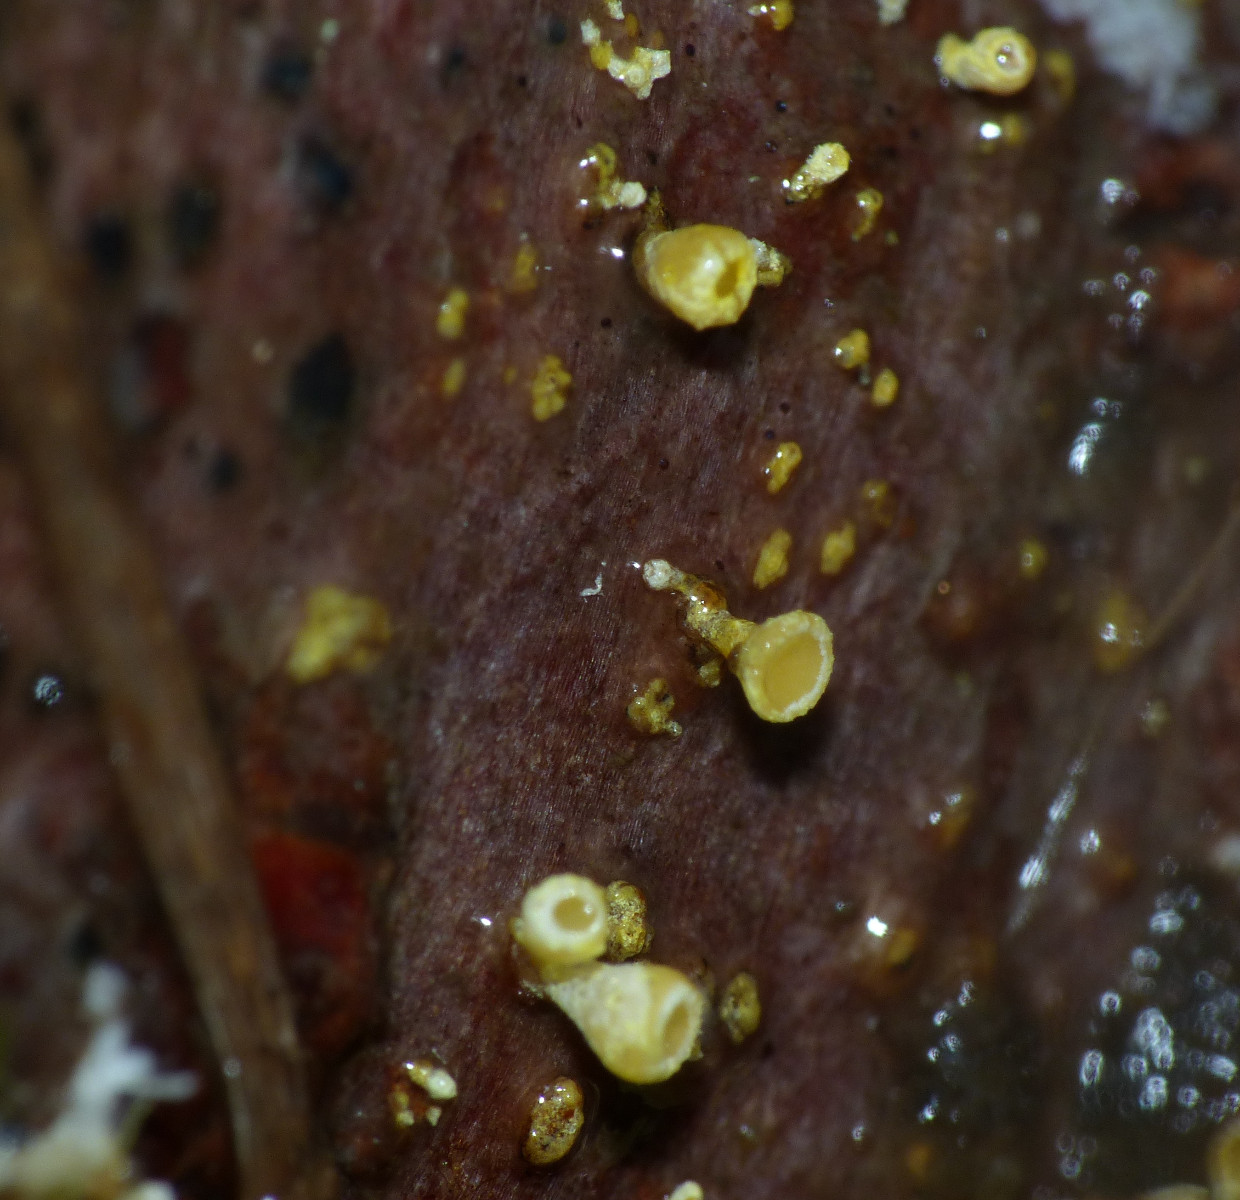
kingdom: Fungi
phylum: Ascomycota
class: Leotiomycetes
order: Helotiales
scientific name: Helotiales
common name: stilkskiveordenen
